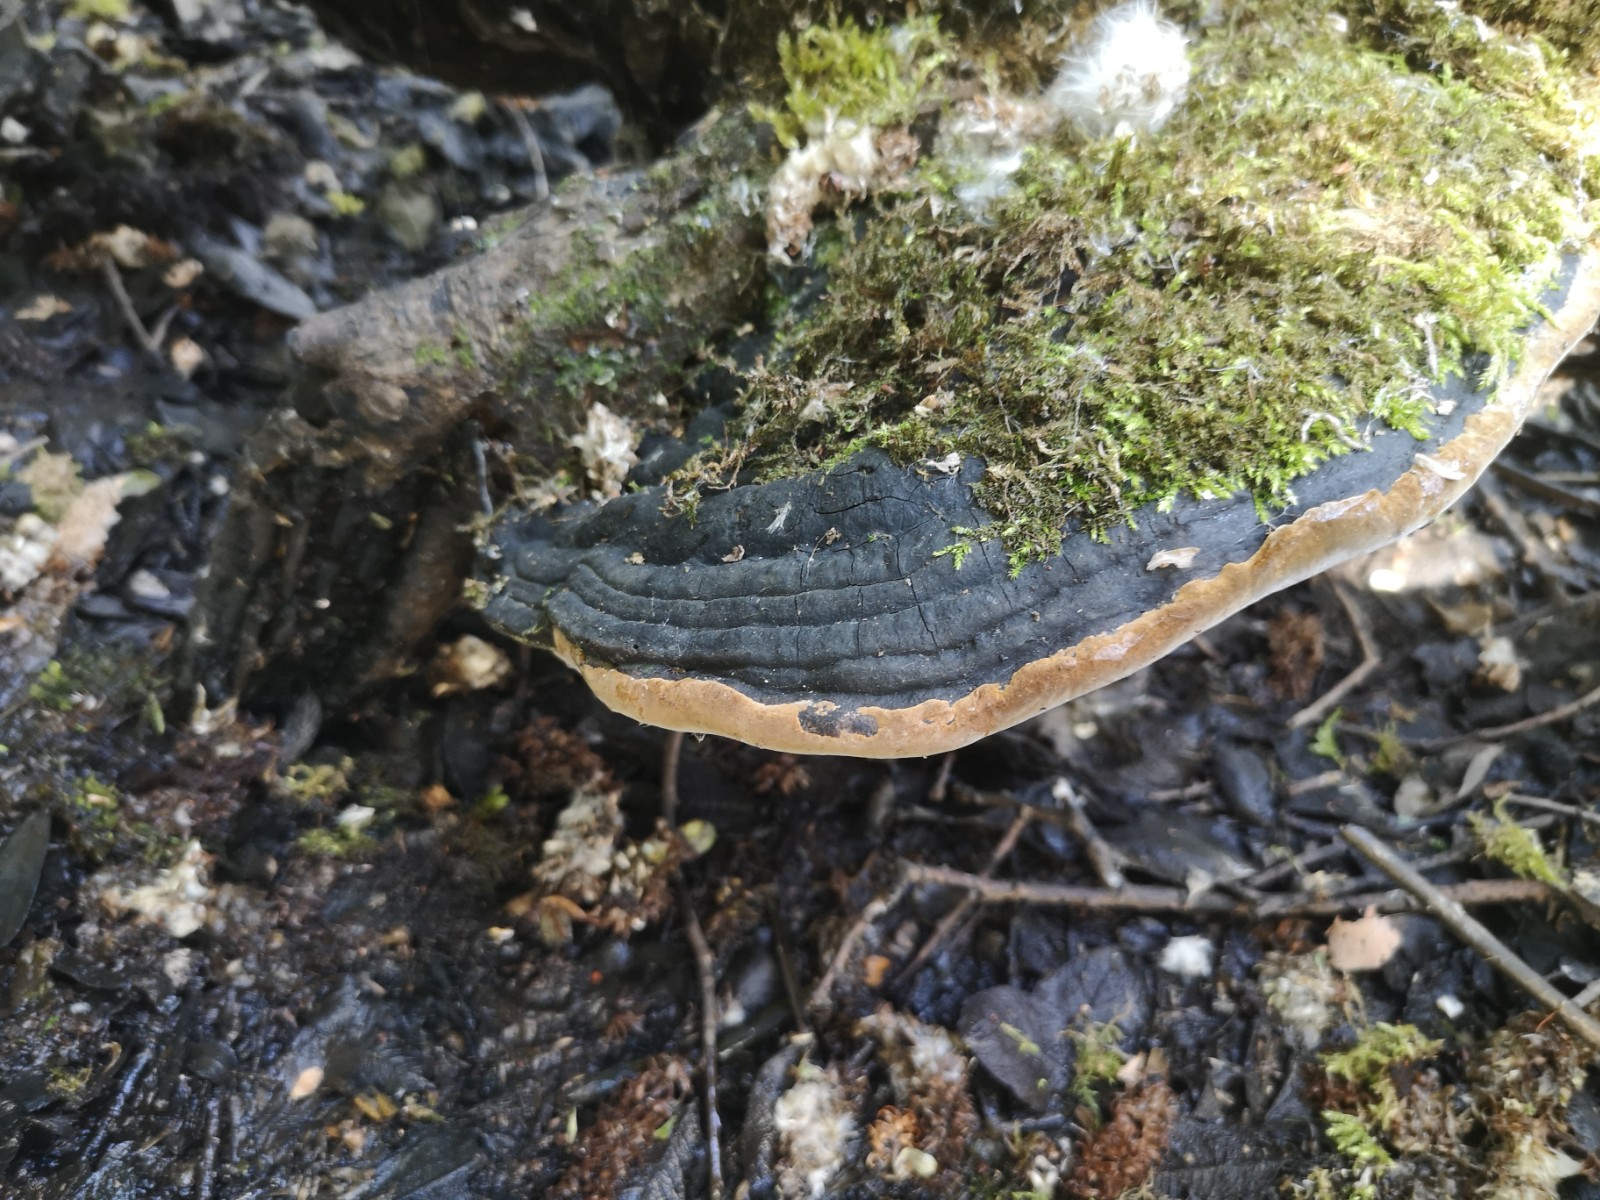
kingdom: Fungi
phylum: Basidiomycota
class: Agaricomycetes
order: Hymenochaetales
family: Hymenochaetaceae
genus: Phellinus
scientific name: Phellinus igniarius
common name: almindelig ildporesvamp
